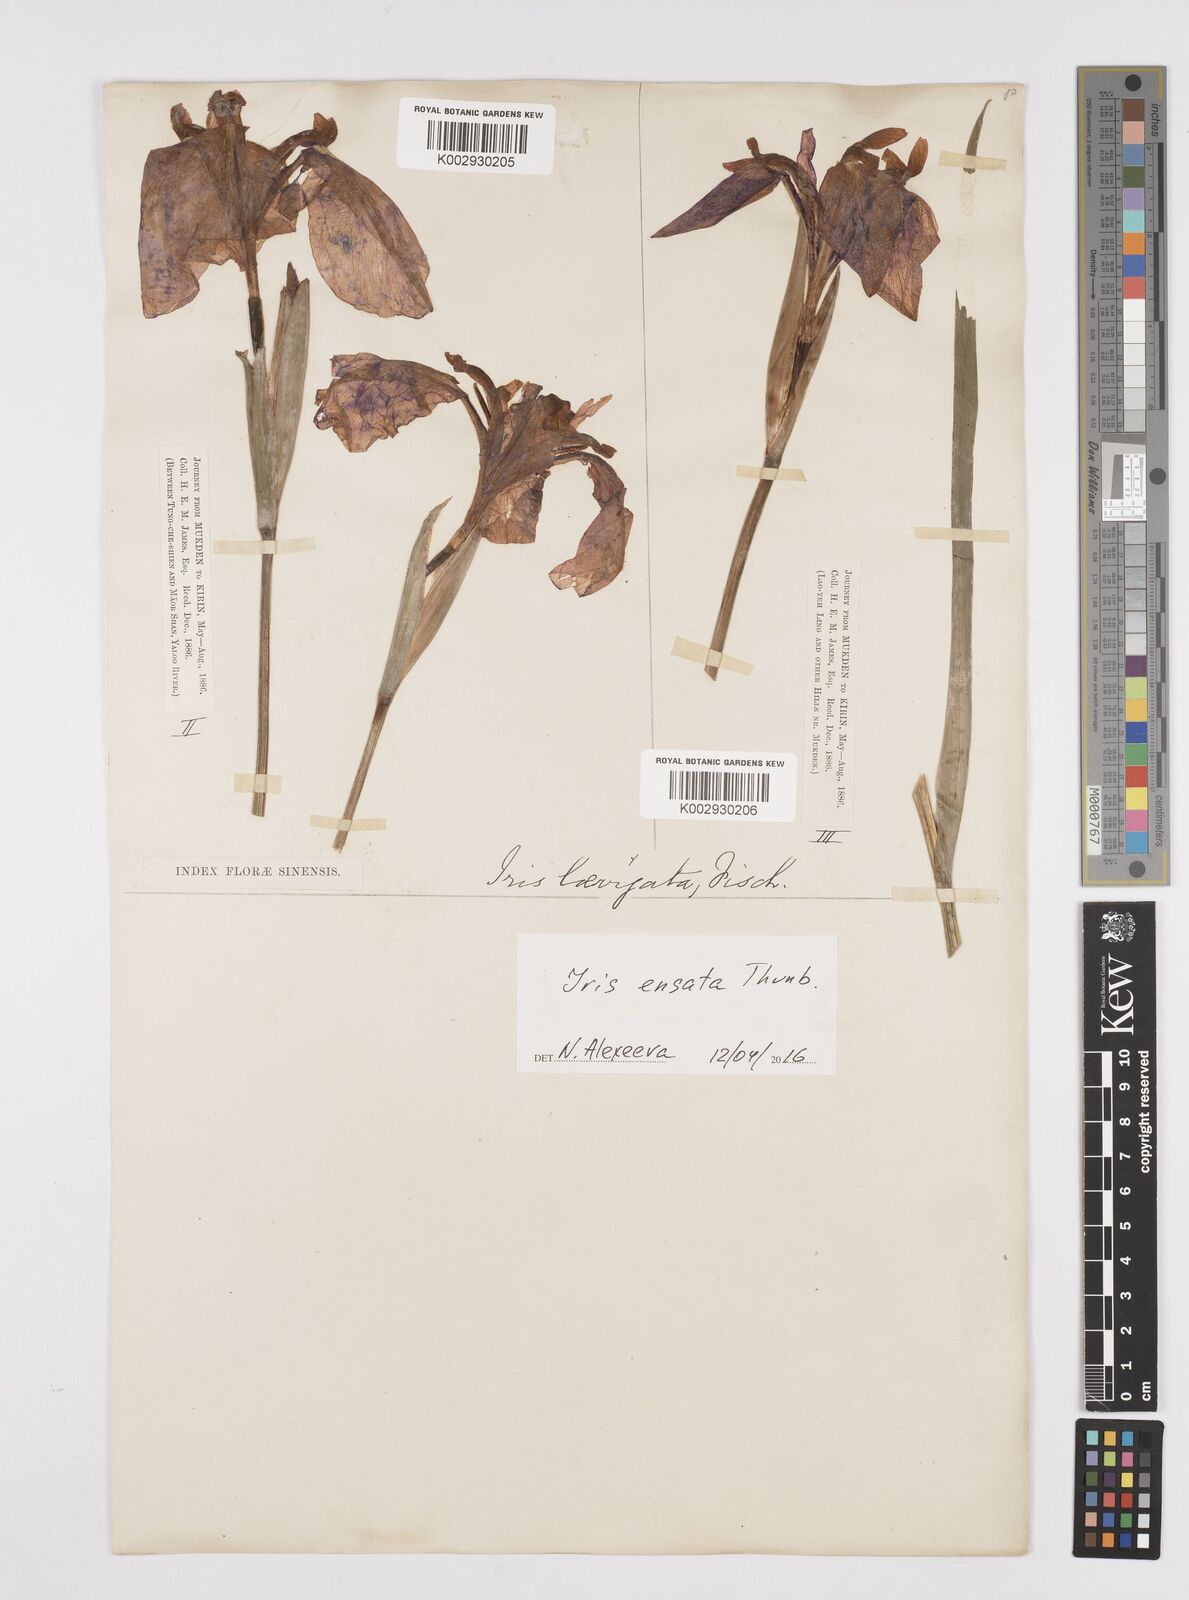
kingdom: Plantae
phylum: Tracheophyta
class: Liliopsida
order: Asparagales
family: Iridaceae
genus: Iris
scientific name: Iris ensata
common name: Beaked iris
